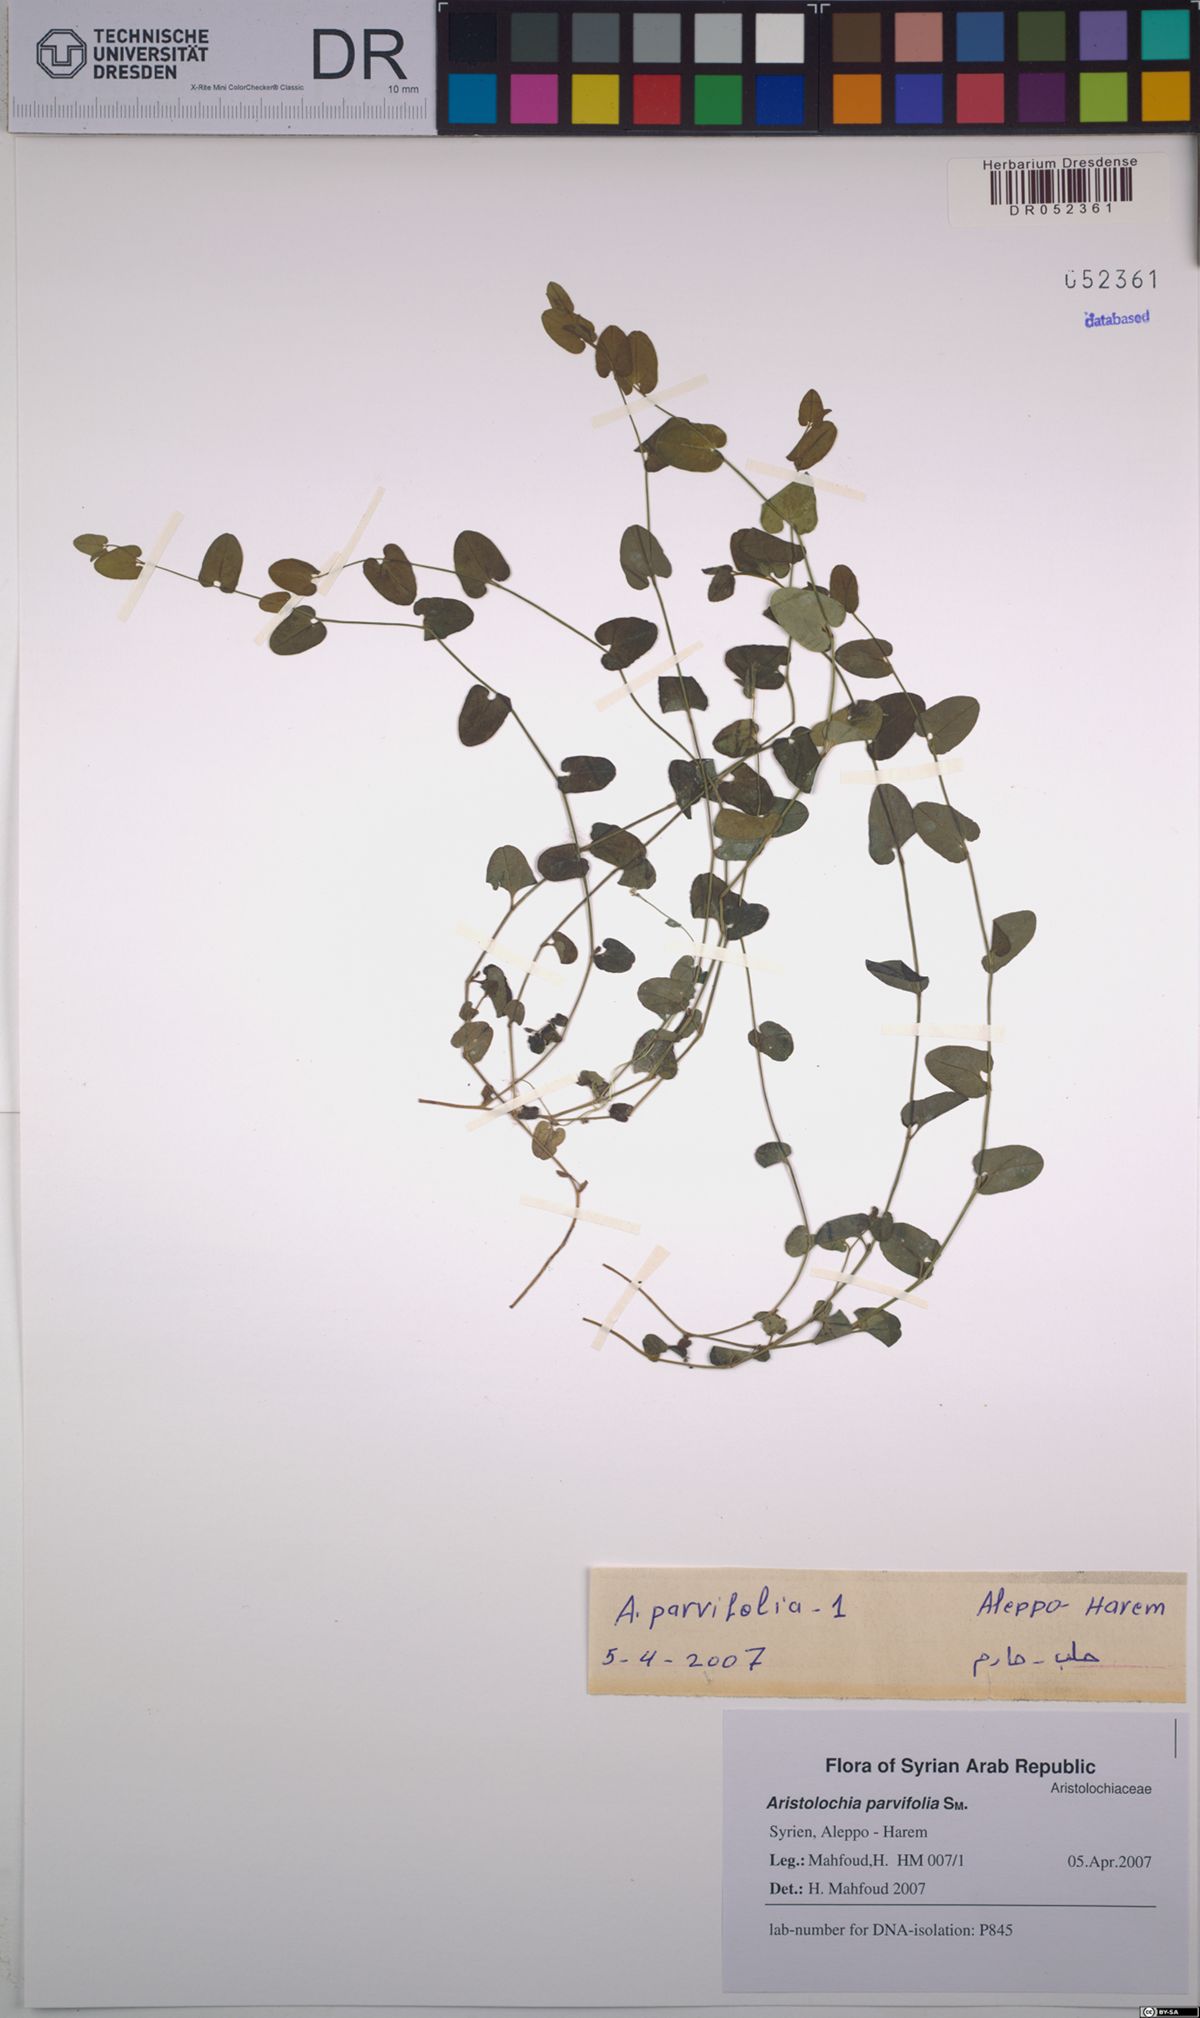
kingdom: Plantae
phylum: Tracheophyta
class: Magnoliopsida
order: Piperales
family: Aristolochiaceae
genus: Aristolochia
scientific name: Aristolochia parvifolia
